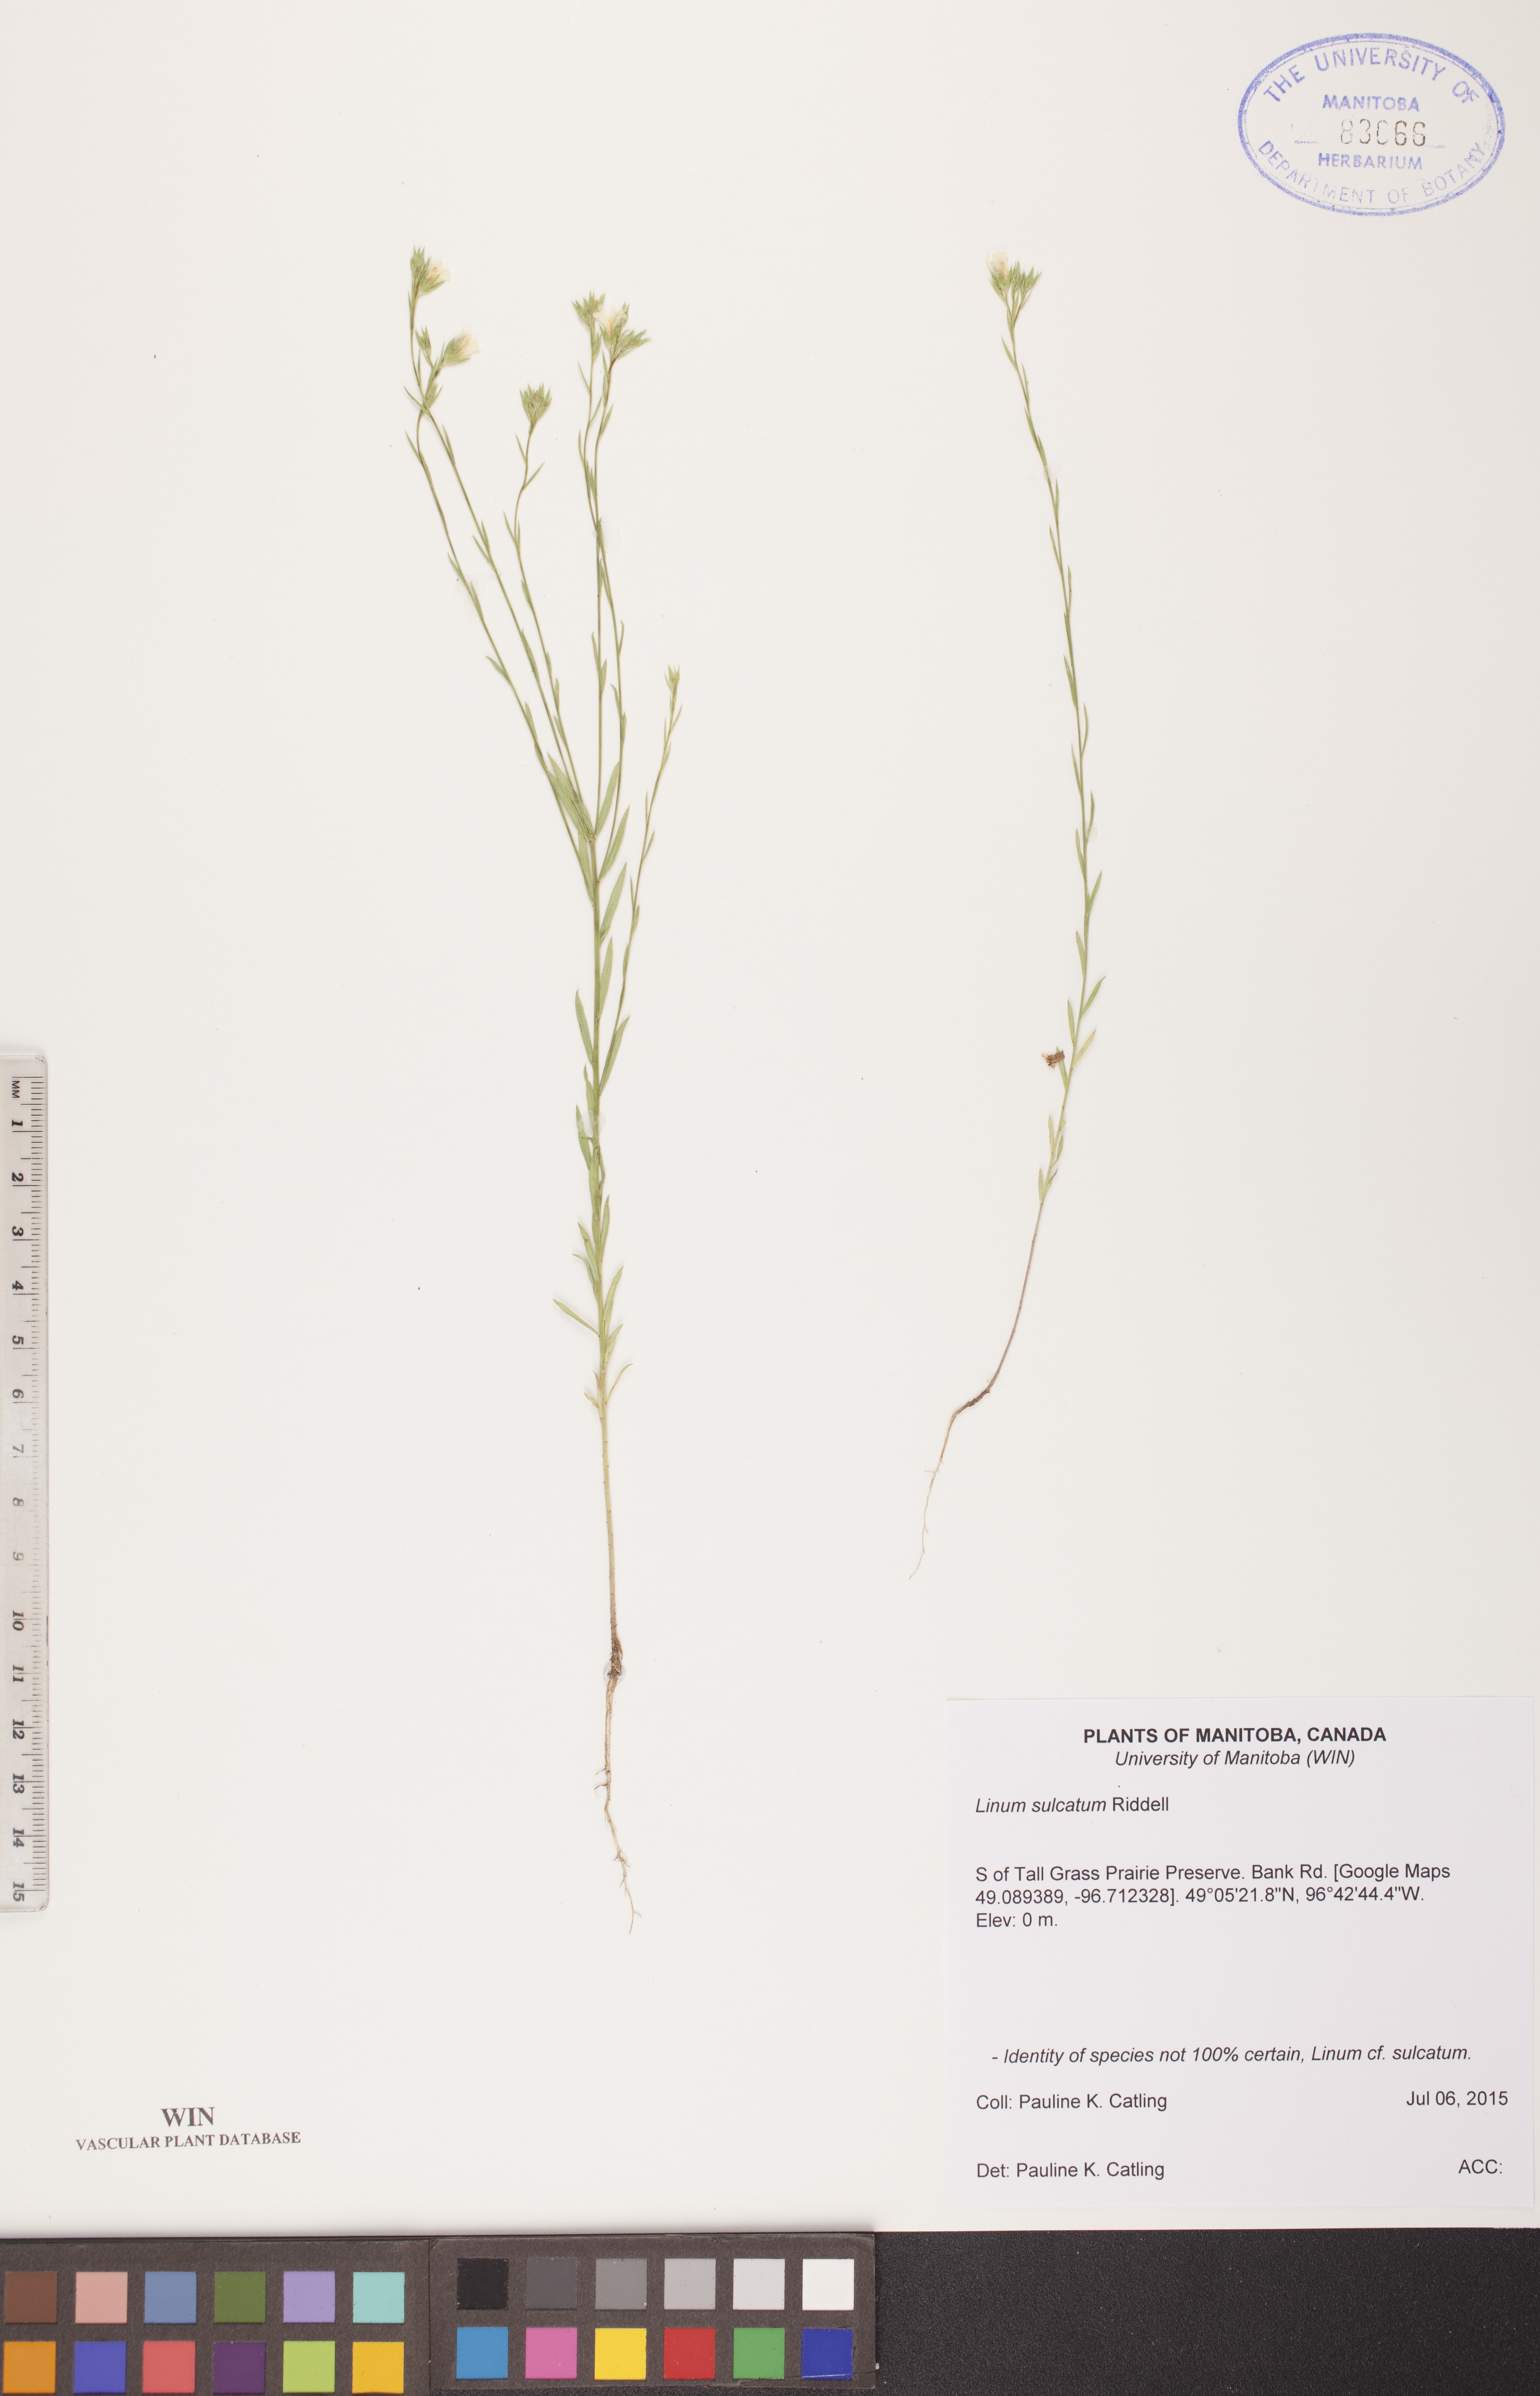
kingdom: Plantae
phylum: Tracheophyta
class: Magnoliopsida
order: Malpighiales
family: Linaceae
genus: Linum
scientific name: Linum sulcatum
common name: Grooved flax
